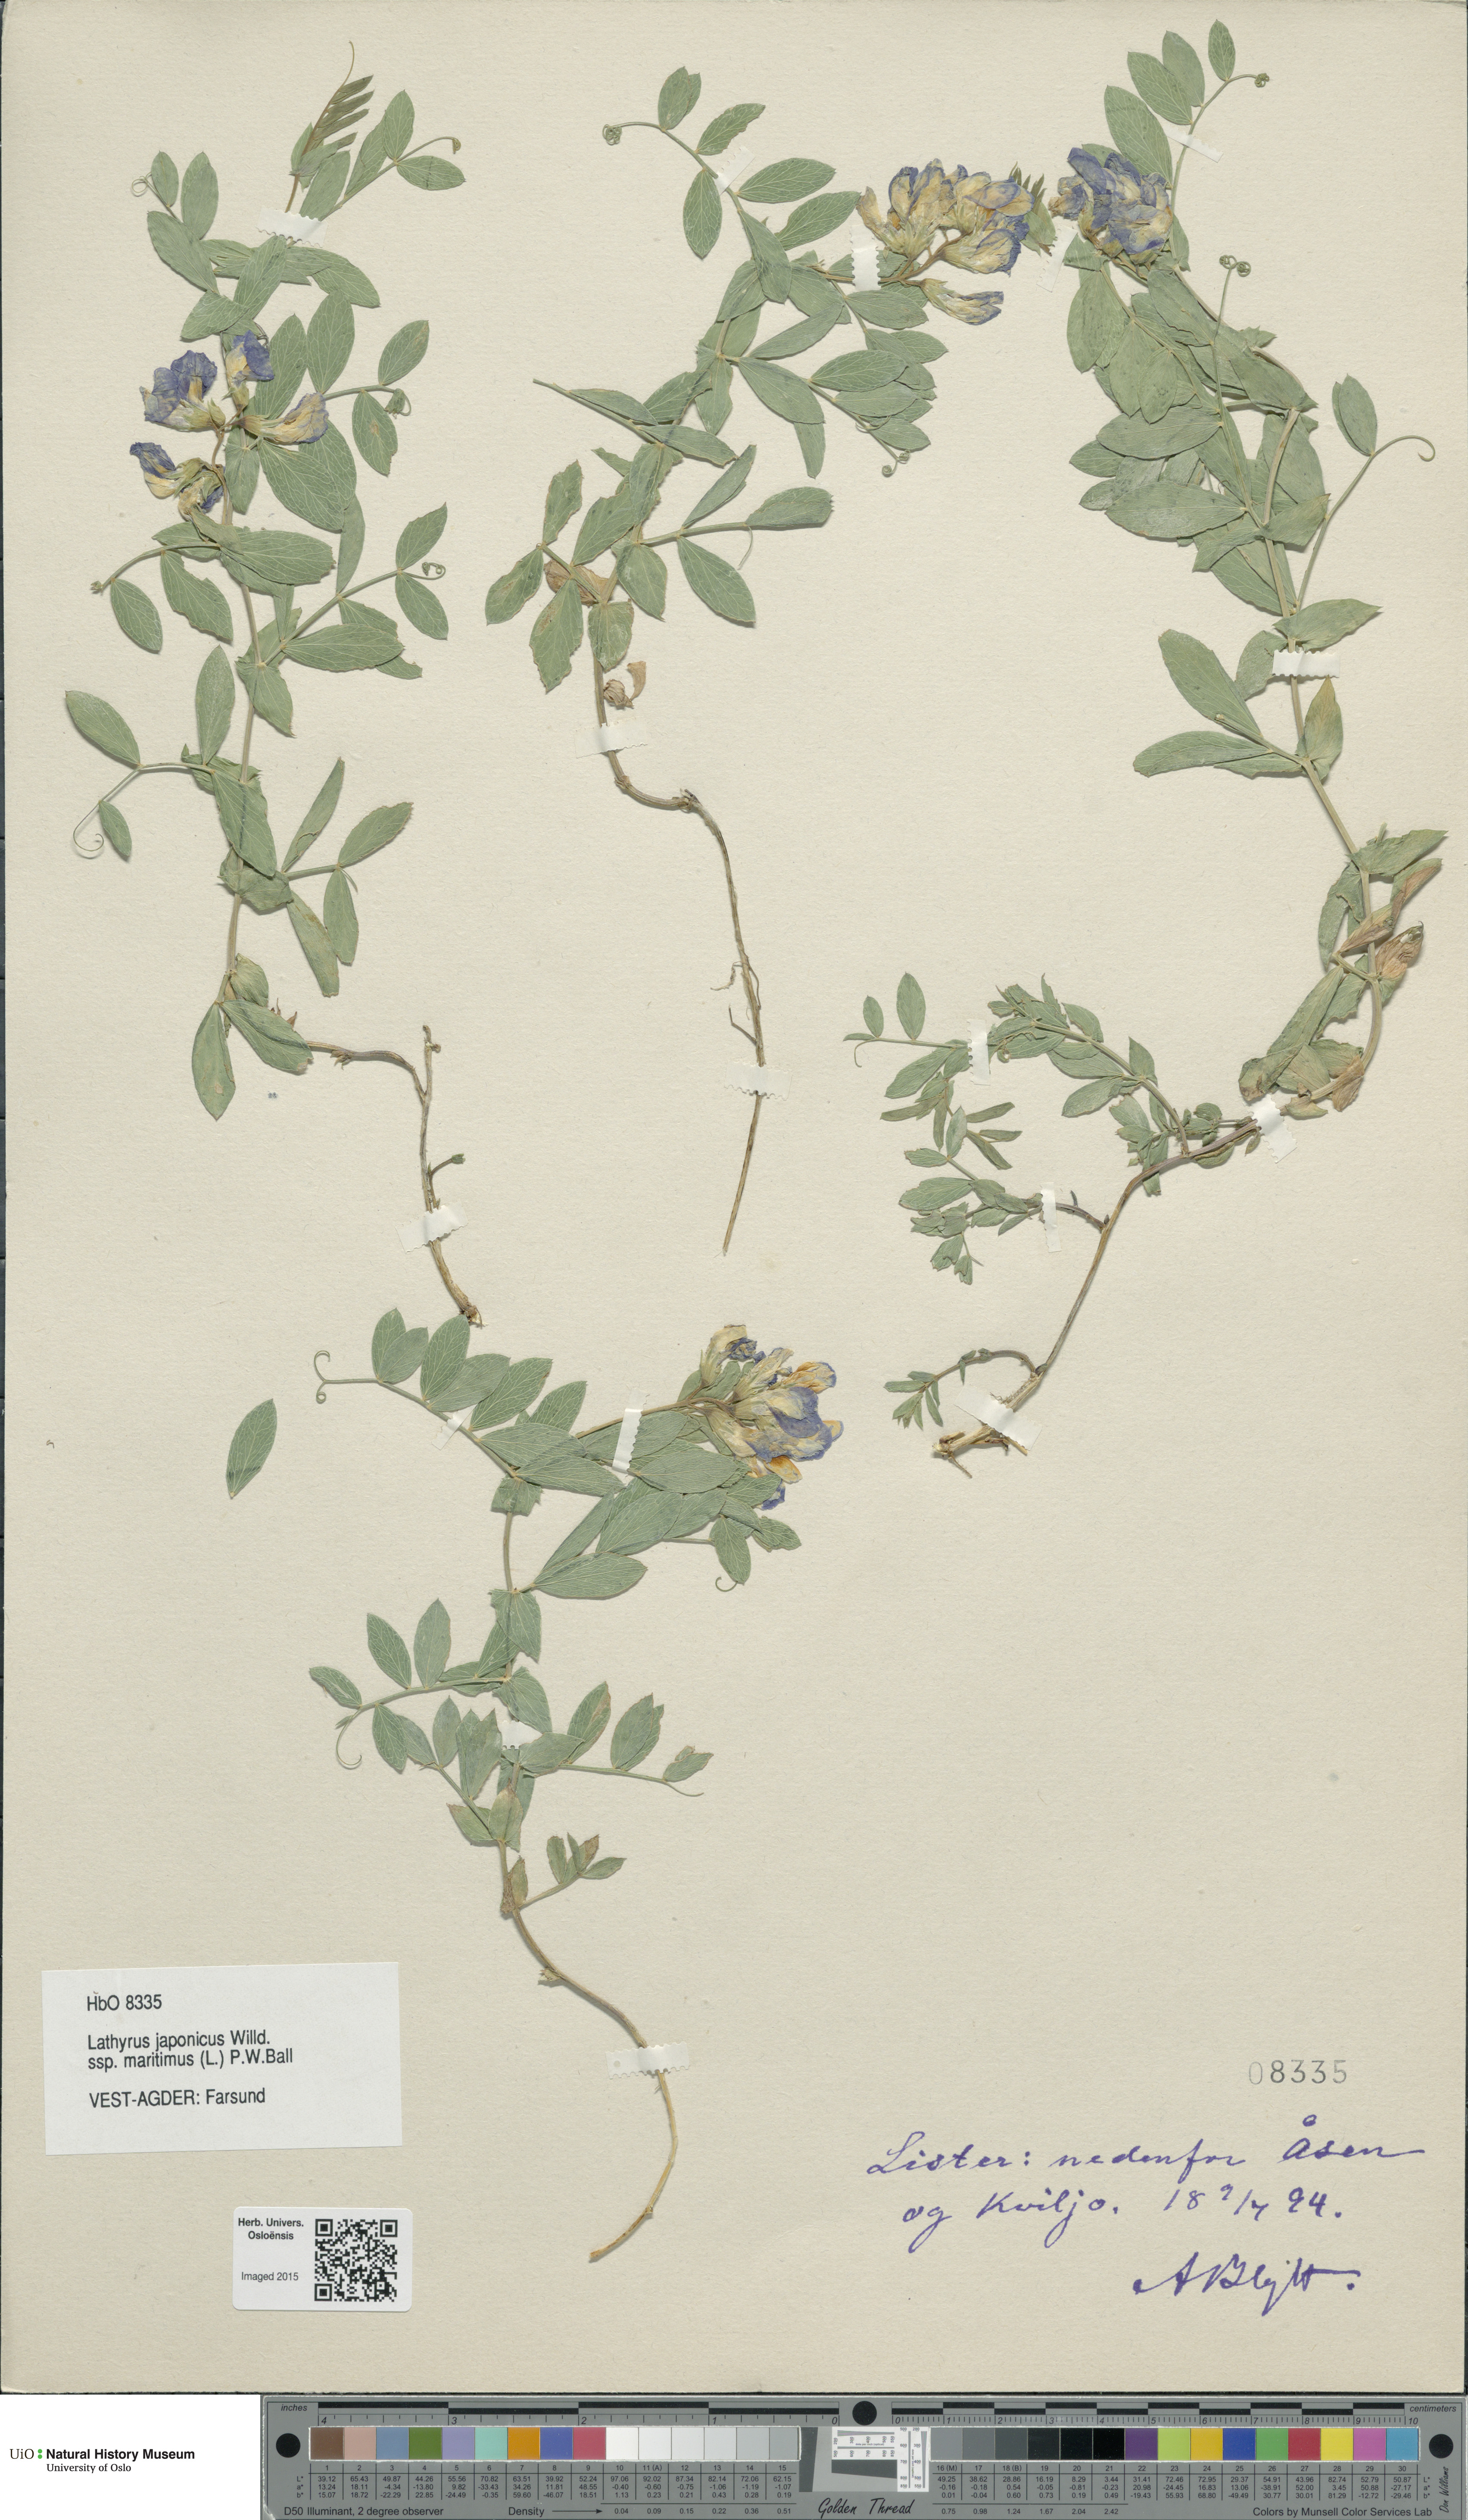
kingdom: Plantae
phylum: Tracheophyta
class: Magnoliopsida
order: Fabales
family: Fabaceae
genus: Lathyrus
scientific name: Lathyrus japonicus
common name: Sea pea
